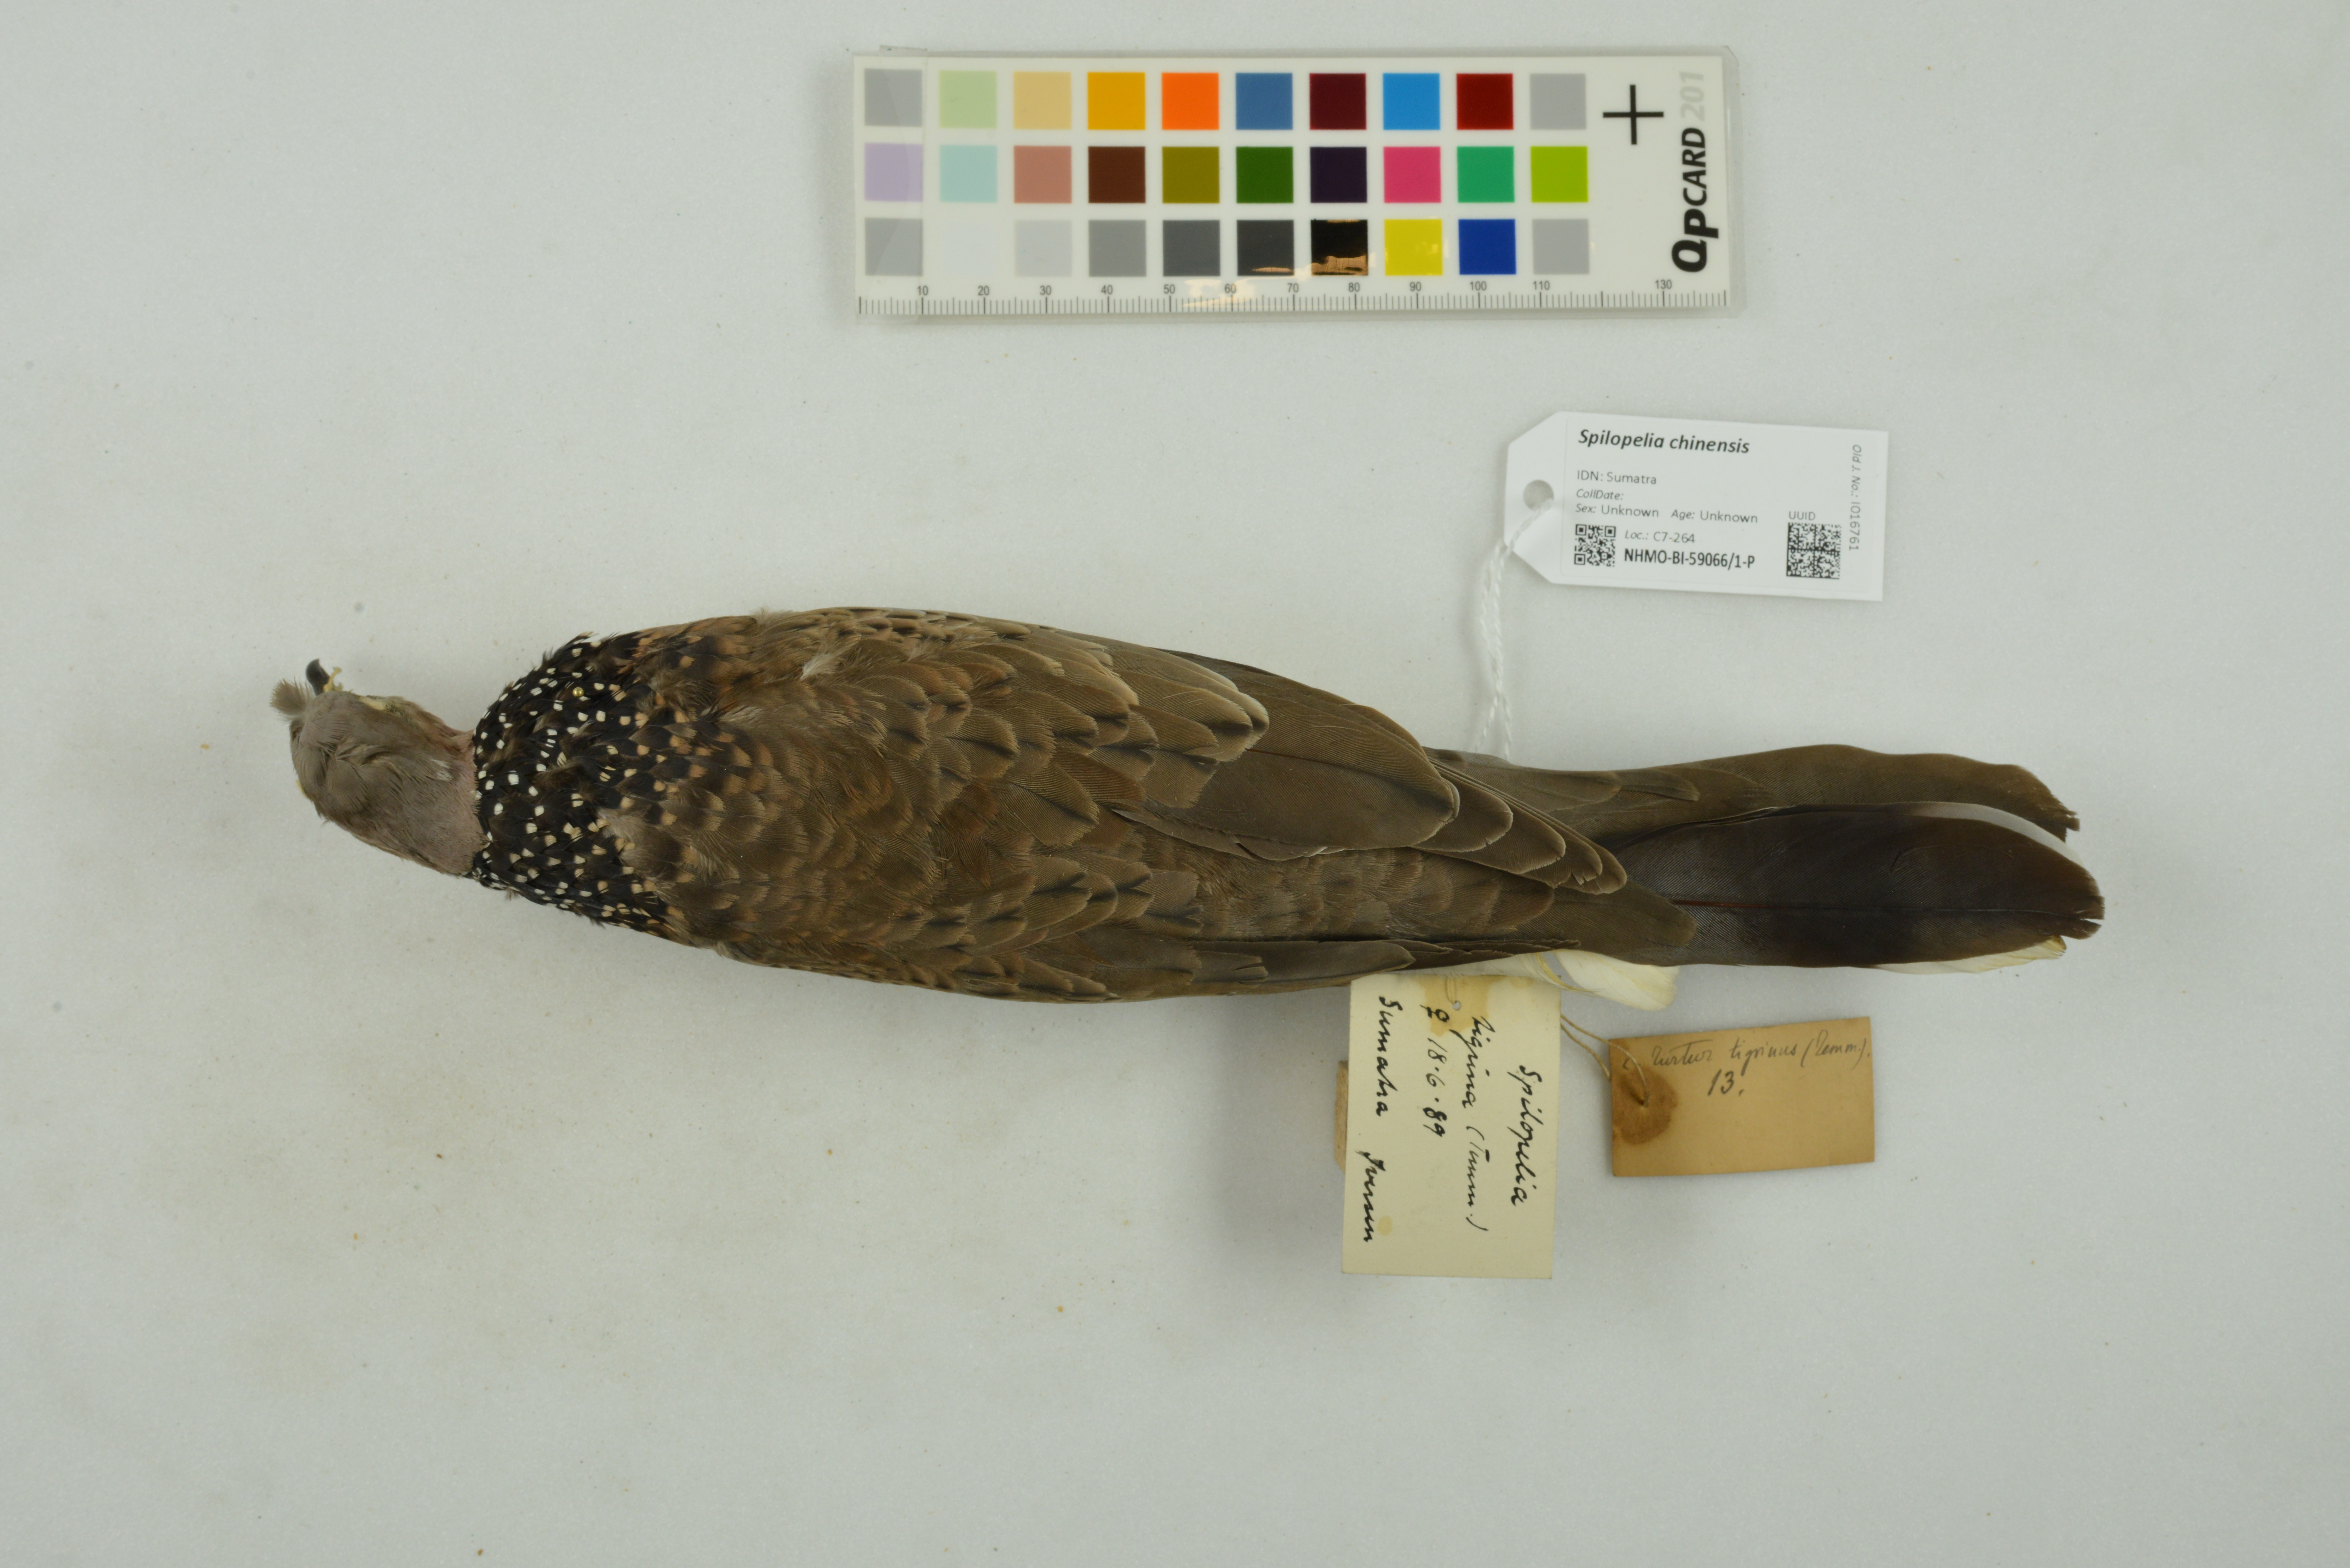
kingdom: Animalia
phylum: Chordata
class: Aves
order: Columbiformes
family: Columbidae
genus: Spilopelia
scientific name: Spilopelia chinensis
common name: Spotted dove
